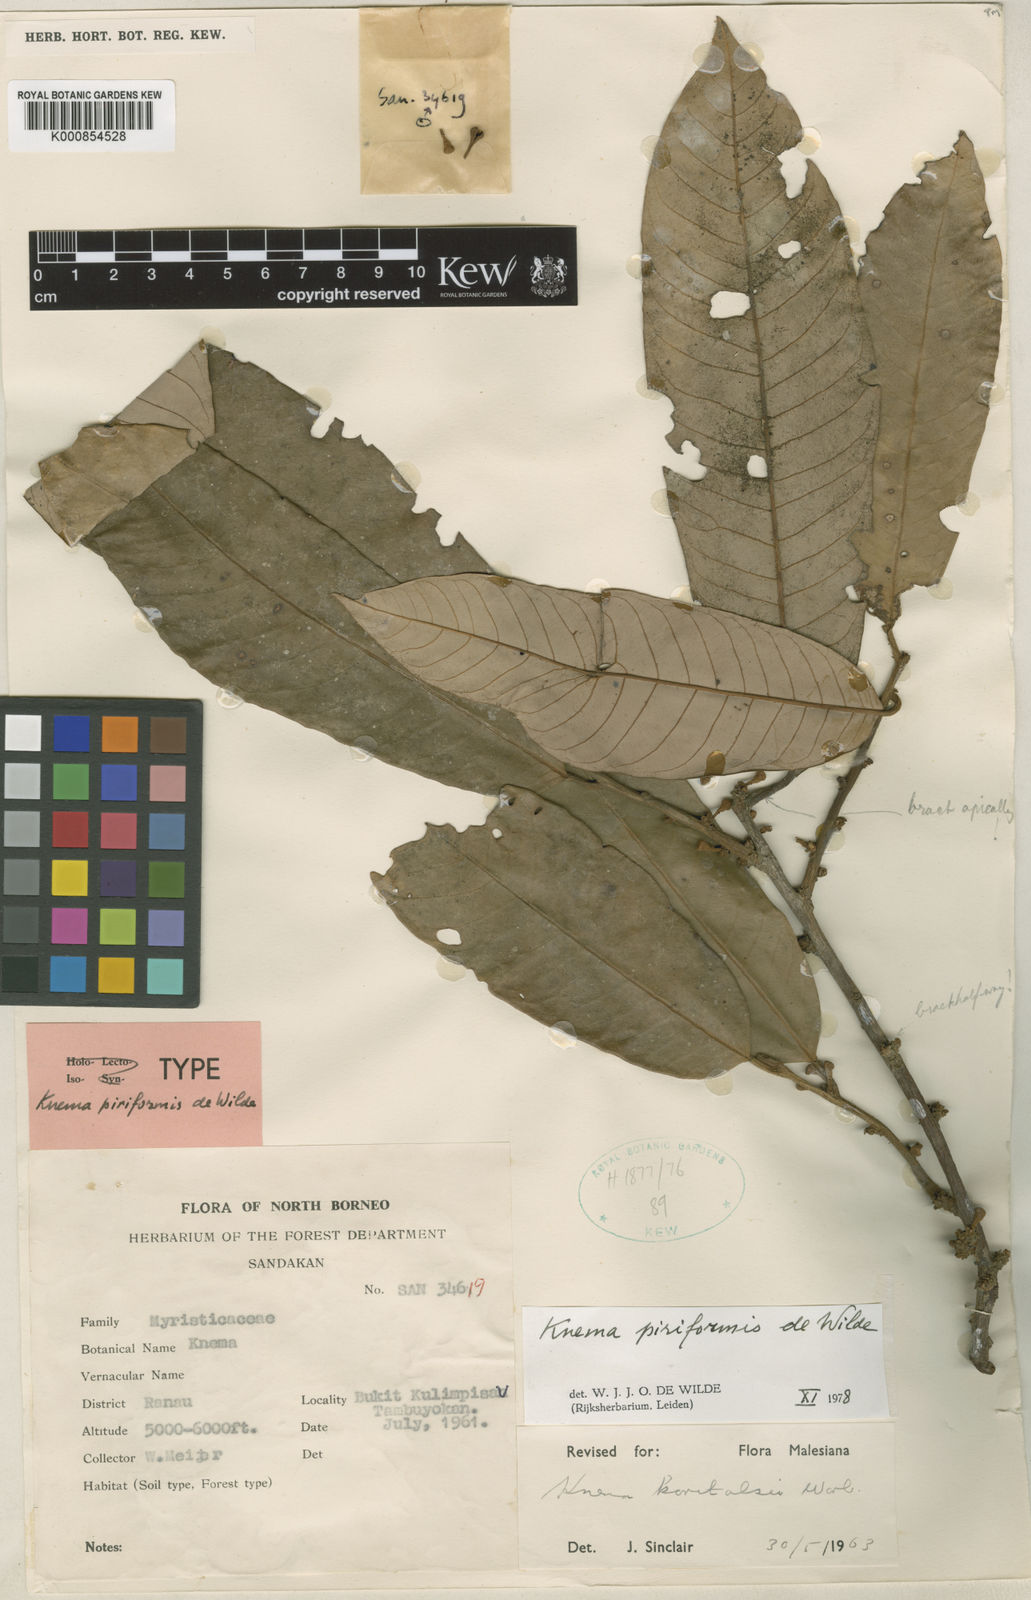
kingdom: Plantae
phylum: Tracheophyta
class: Magnoliopsida
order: Magnoliales
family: Myristicaceae
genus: Knema
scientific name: Knema piriformis
